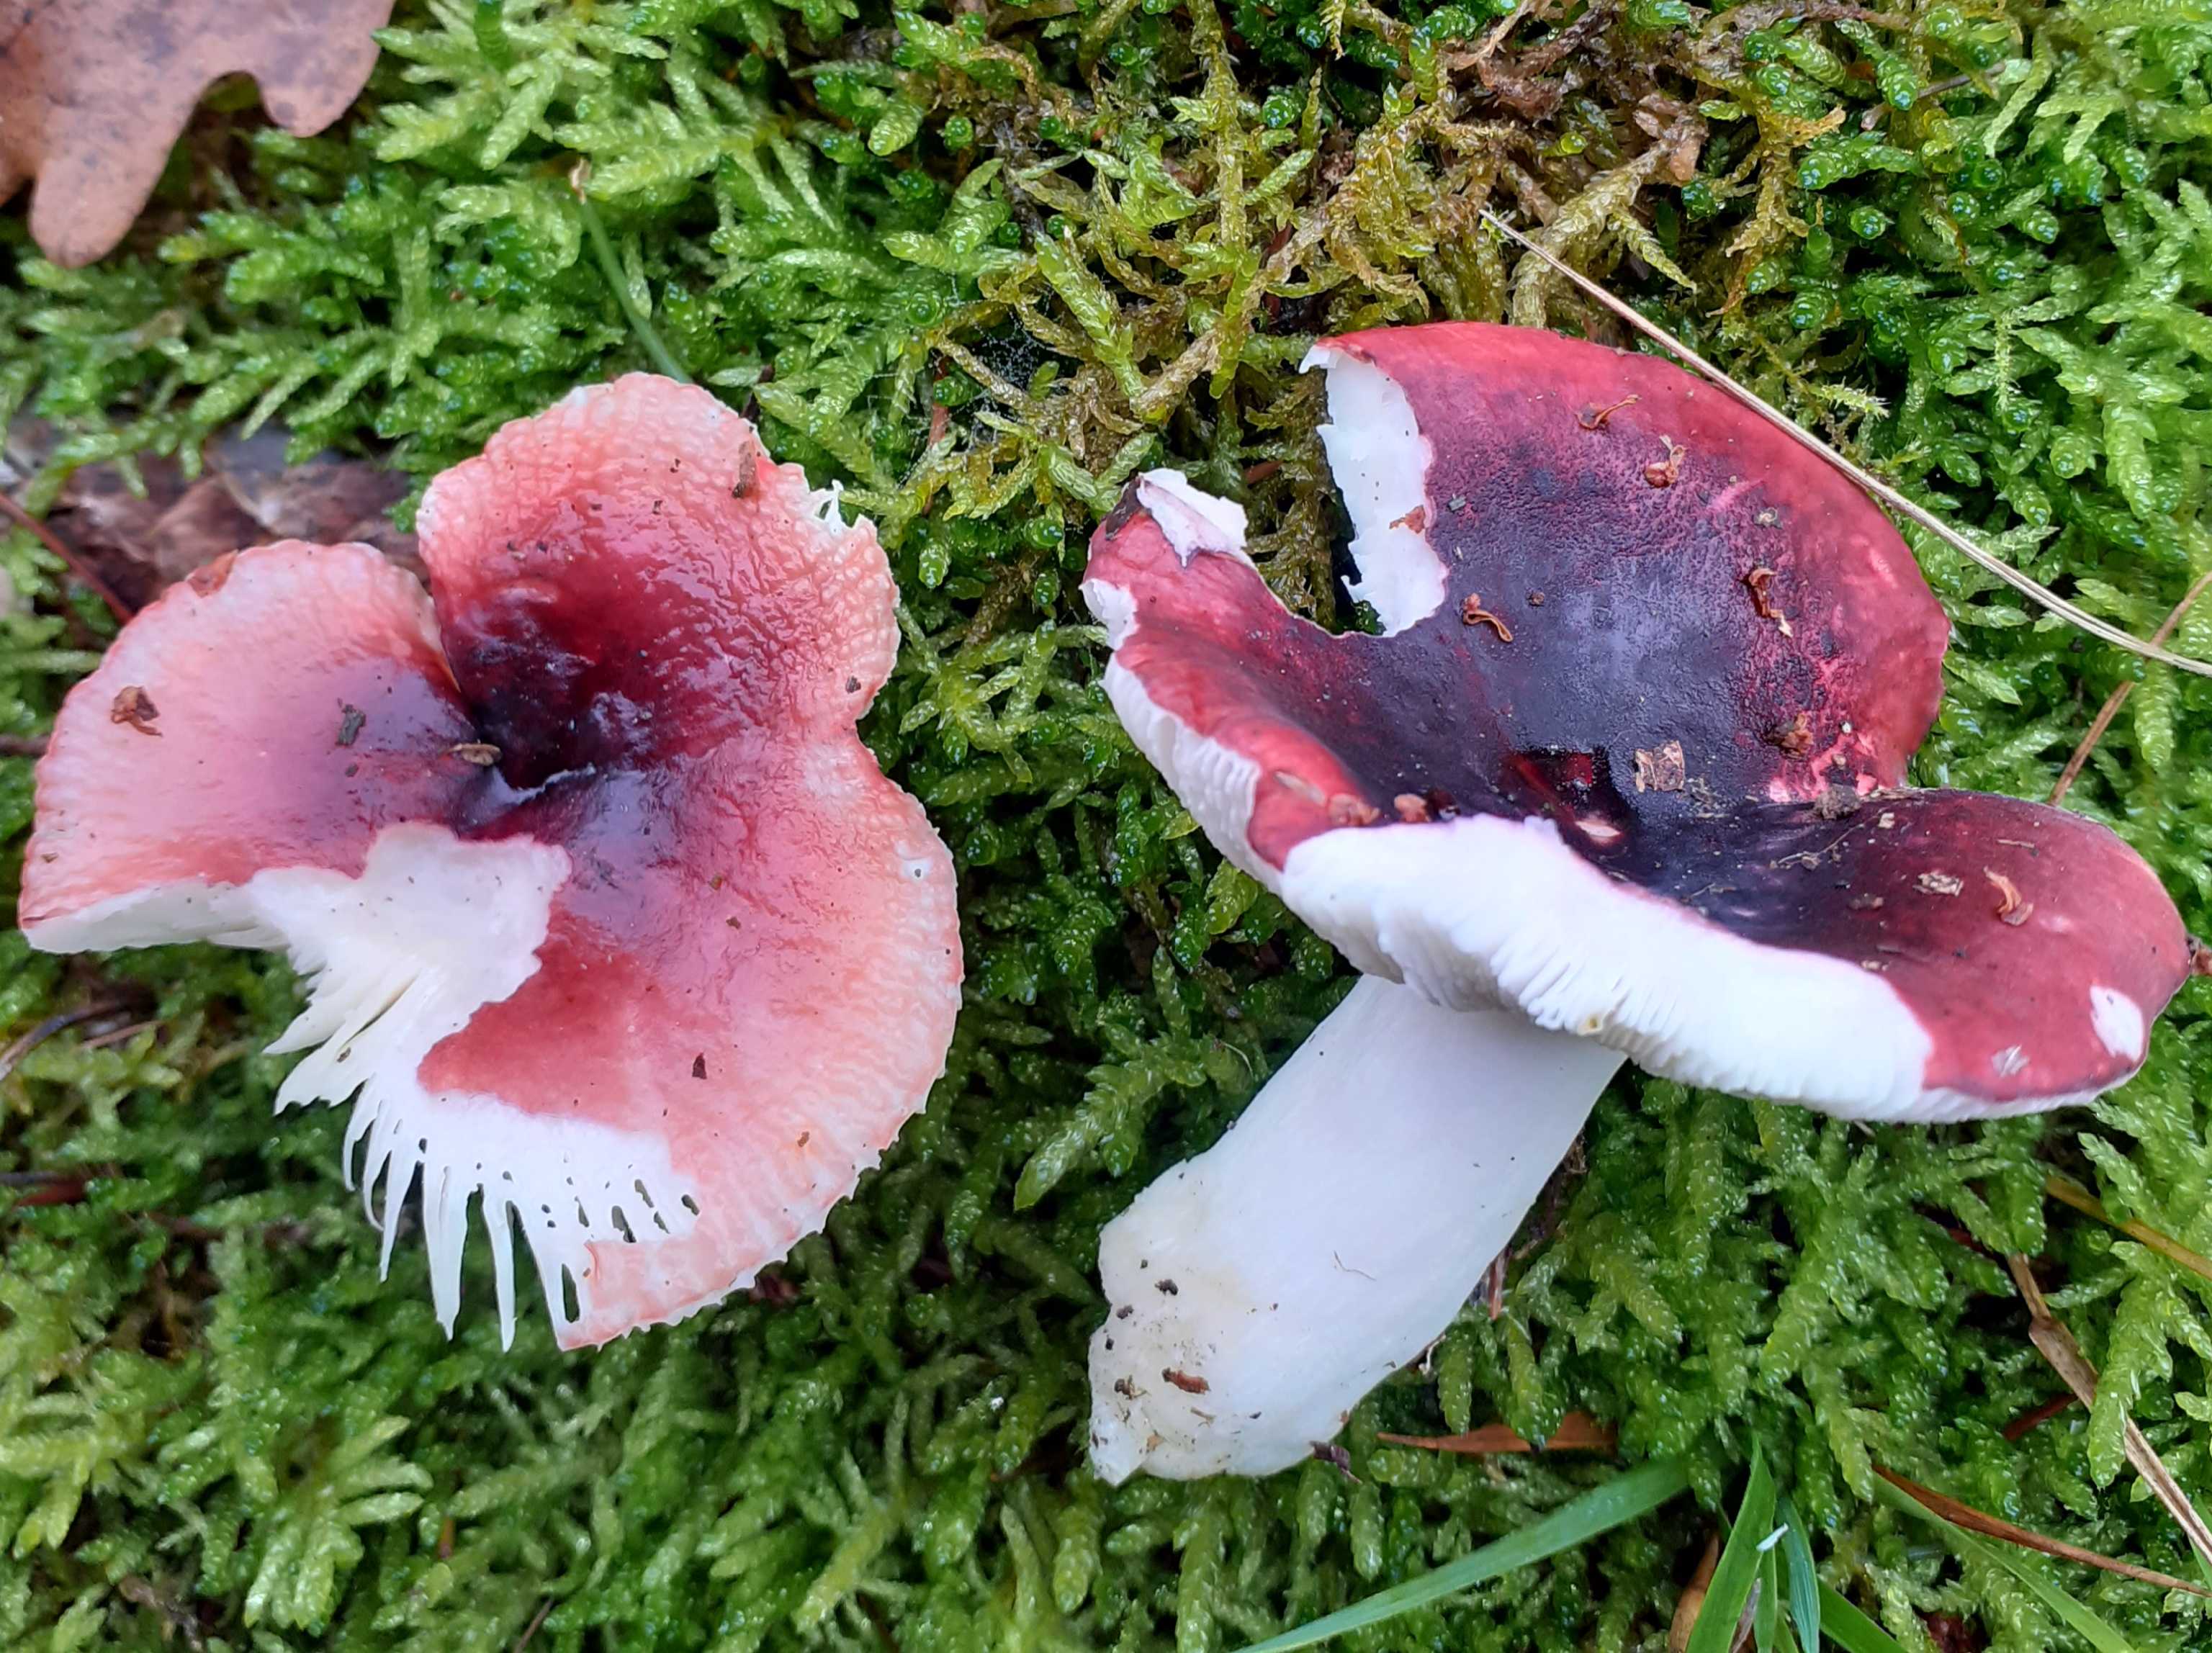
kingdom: Fungi
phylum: Basidiomycota
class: Agaricomycetes
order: Russulales
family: Russulaceae
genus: Russula
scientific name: Russula atrorubens
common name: sortrød skørhat
